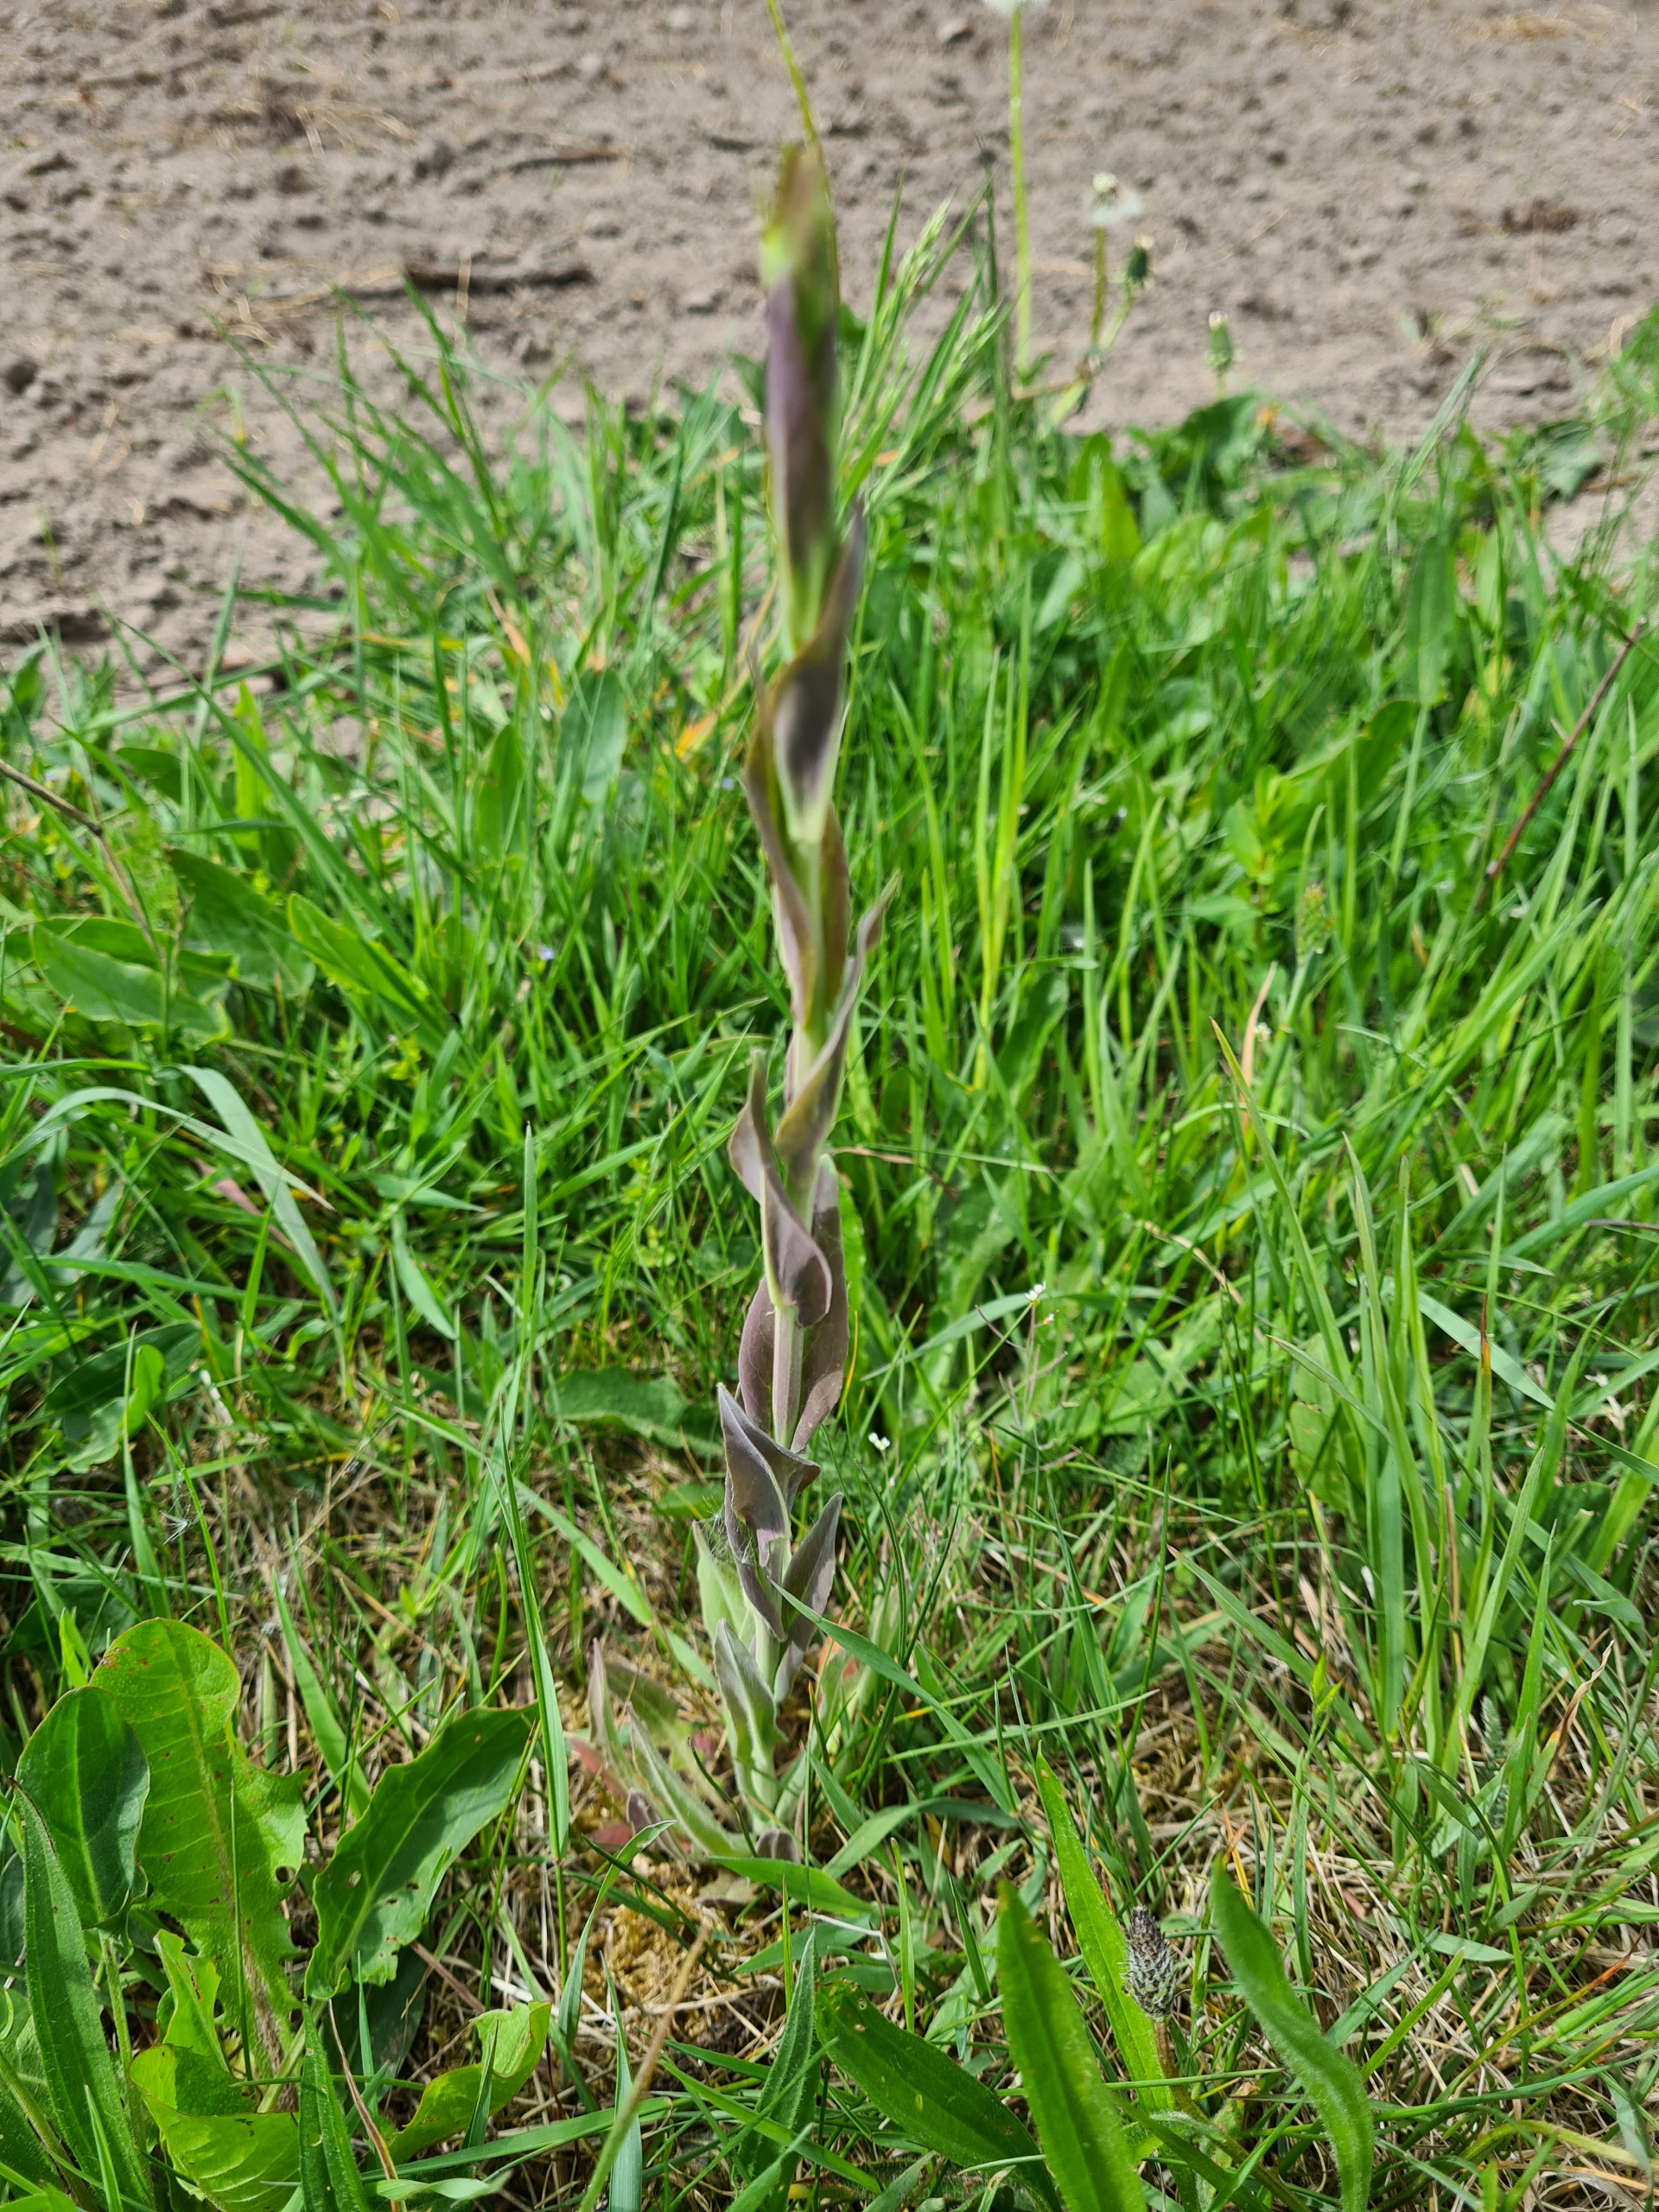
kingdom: Plantae
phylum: Tracheophyta
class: Magnoliopsida
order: Brassicales
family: Brassicaceae
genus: Turritis
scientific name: Turritis glabra
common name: Tårnurt
